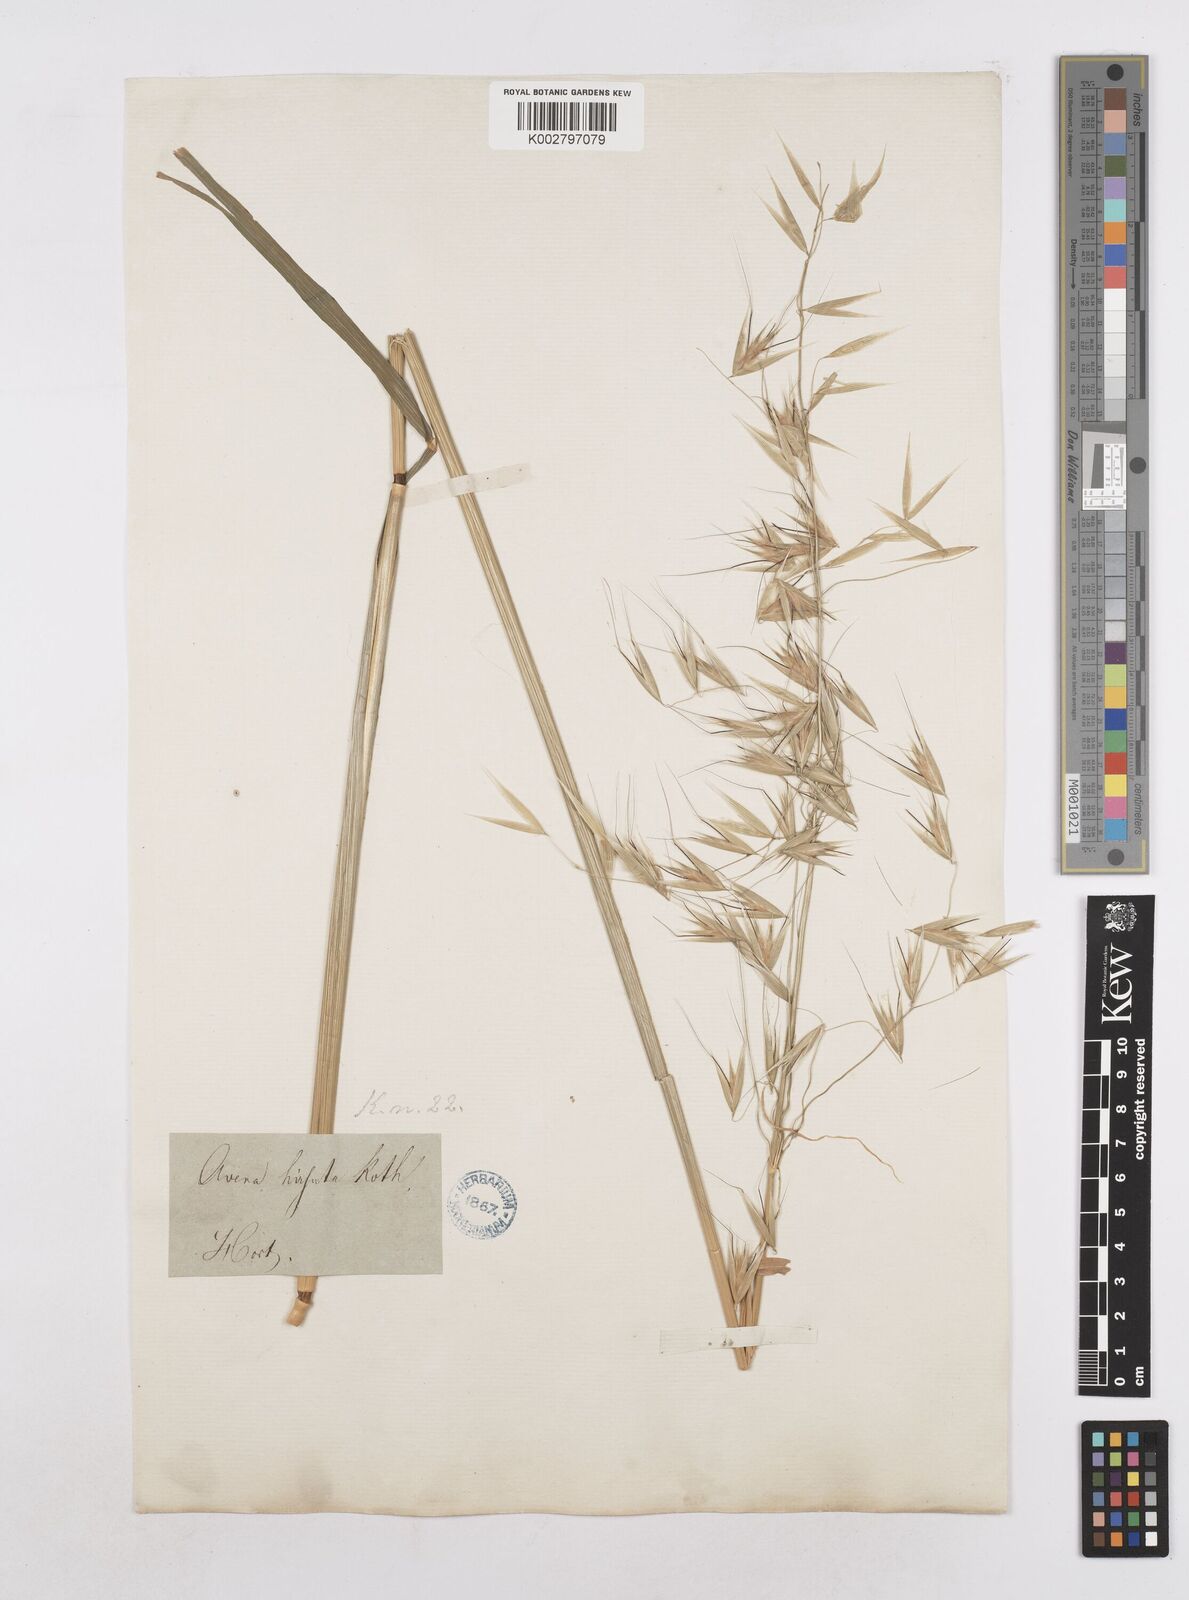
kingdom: Plantae
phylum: Tracheophyta
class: Liliopsida
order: Poales
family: Poaceae
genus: Avena
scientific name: Avena
